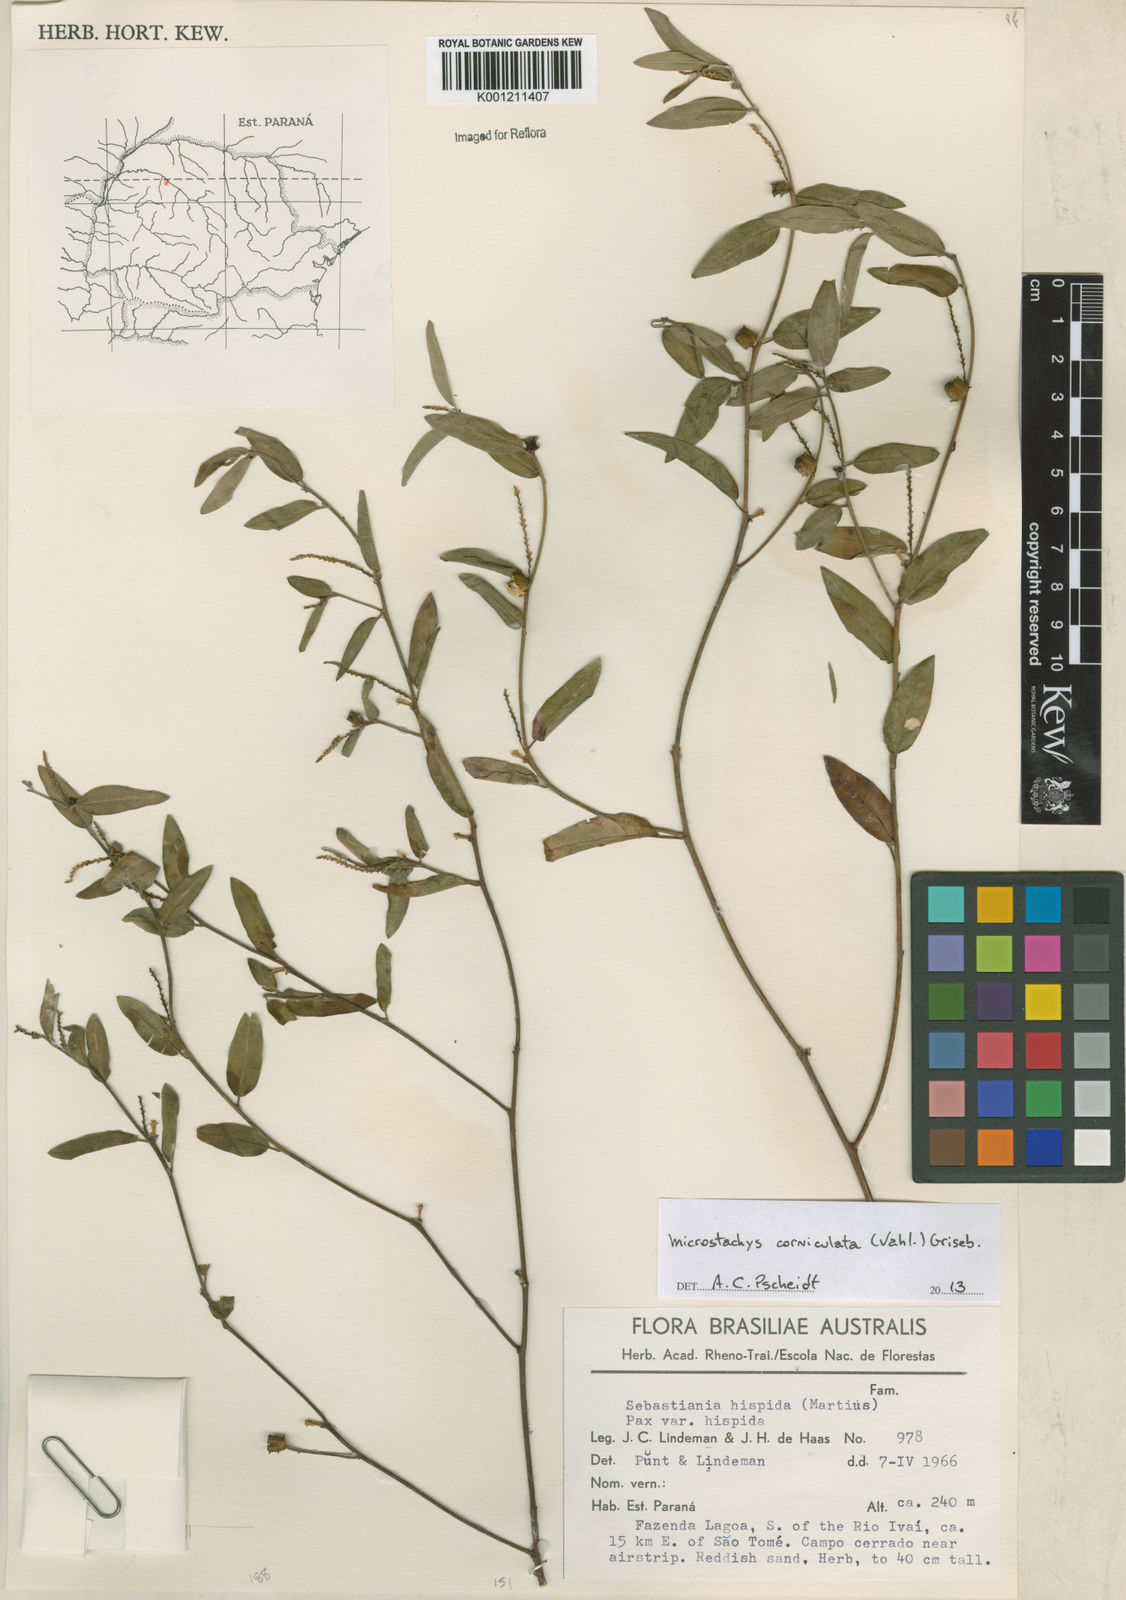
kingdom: Plantae
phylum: Tracheophyta
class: Magnoliopsida
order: Malpighiales
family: Euphorbiaceae
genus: Microstachys
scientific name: Microstachys corniculata
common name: Hato tejas
